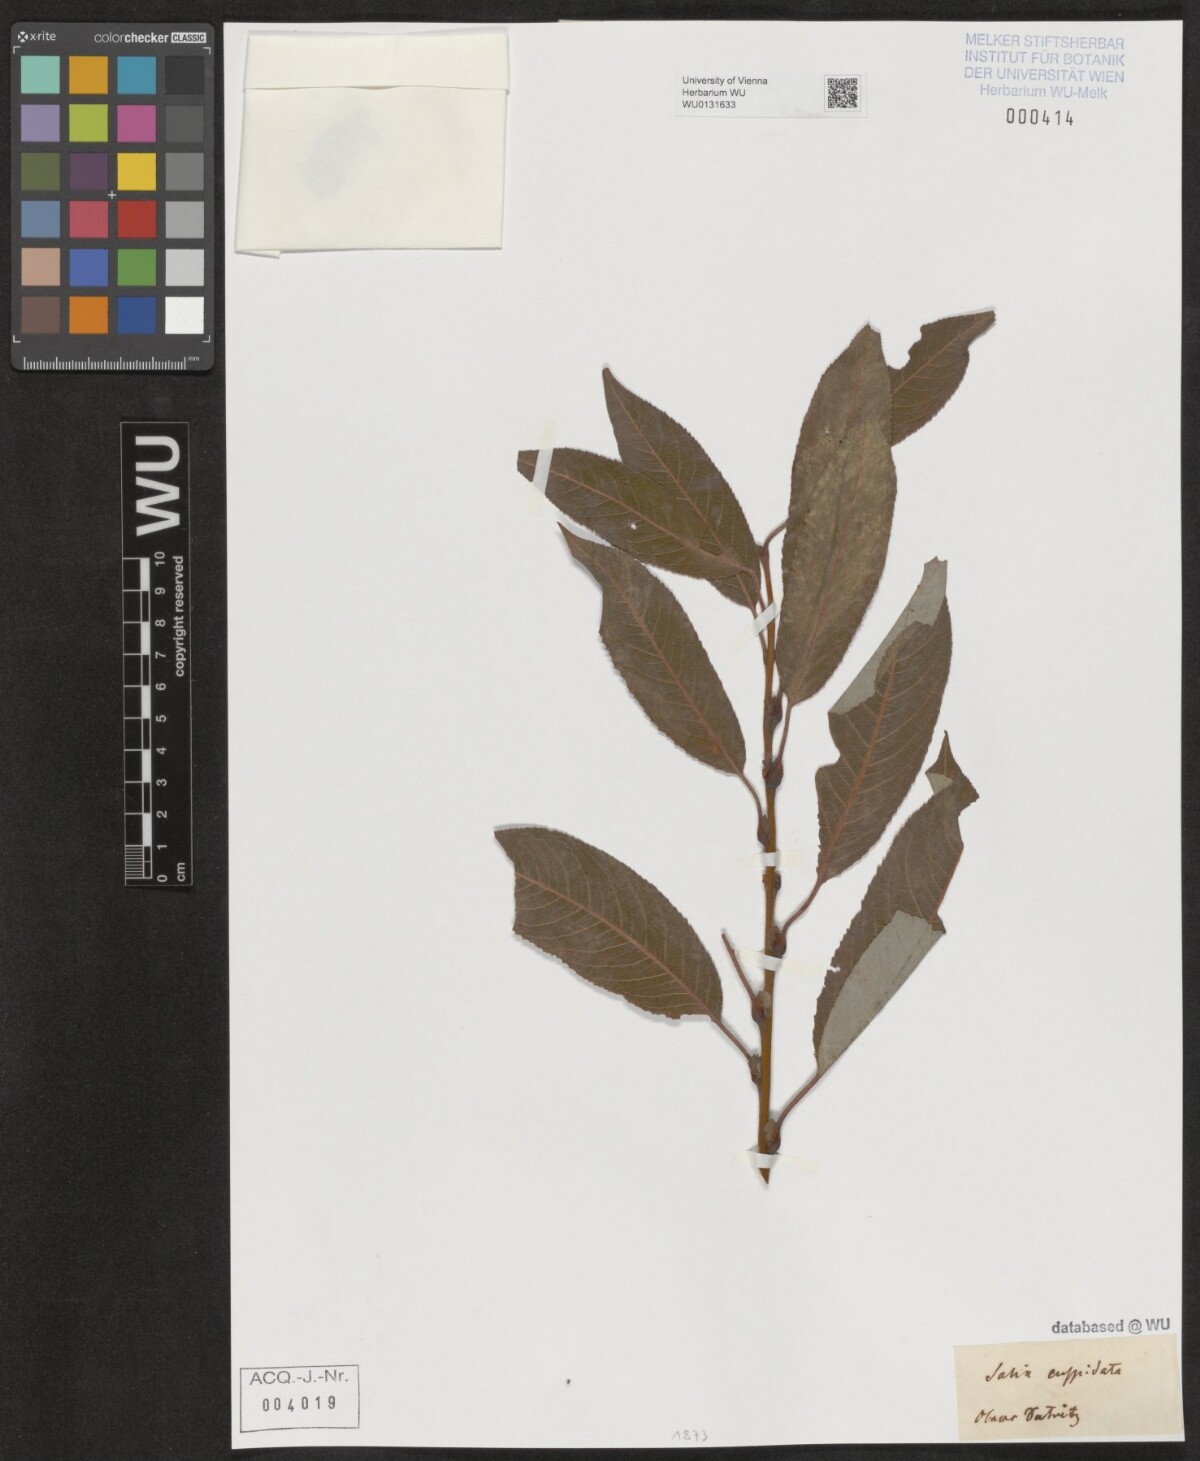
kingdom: Plantae
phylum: Tracheophyta
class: Magnoliopsida
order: Malpighiales
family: Salicaceae
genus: Salix
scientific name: Salix meyeriana
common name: Shiny-leaf willow
